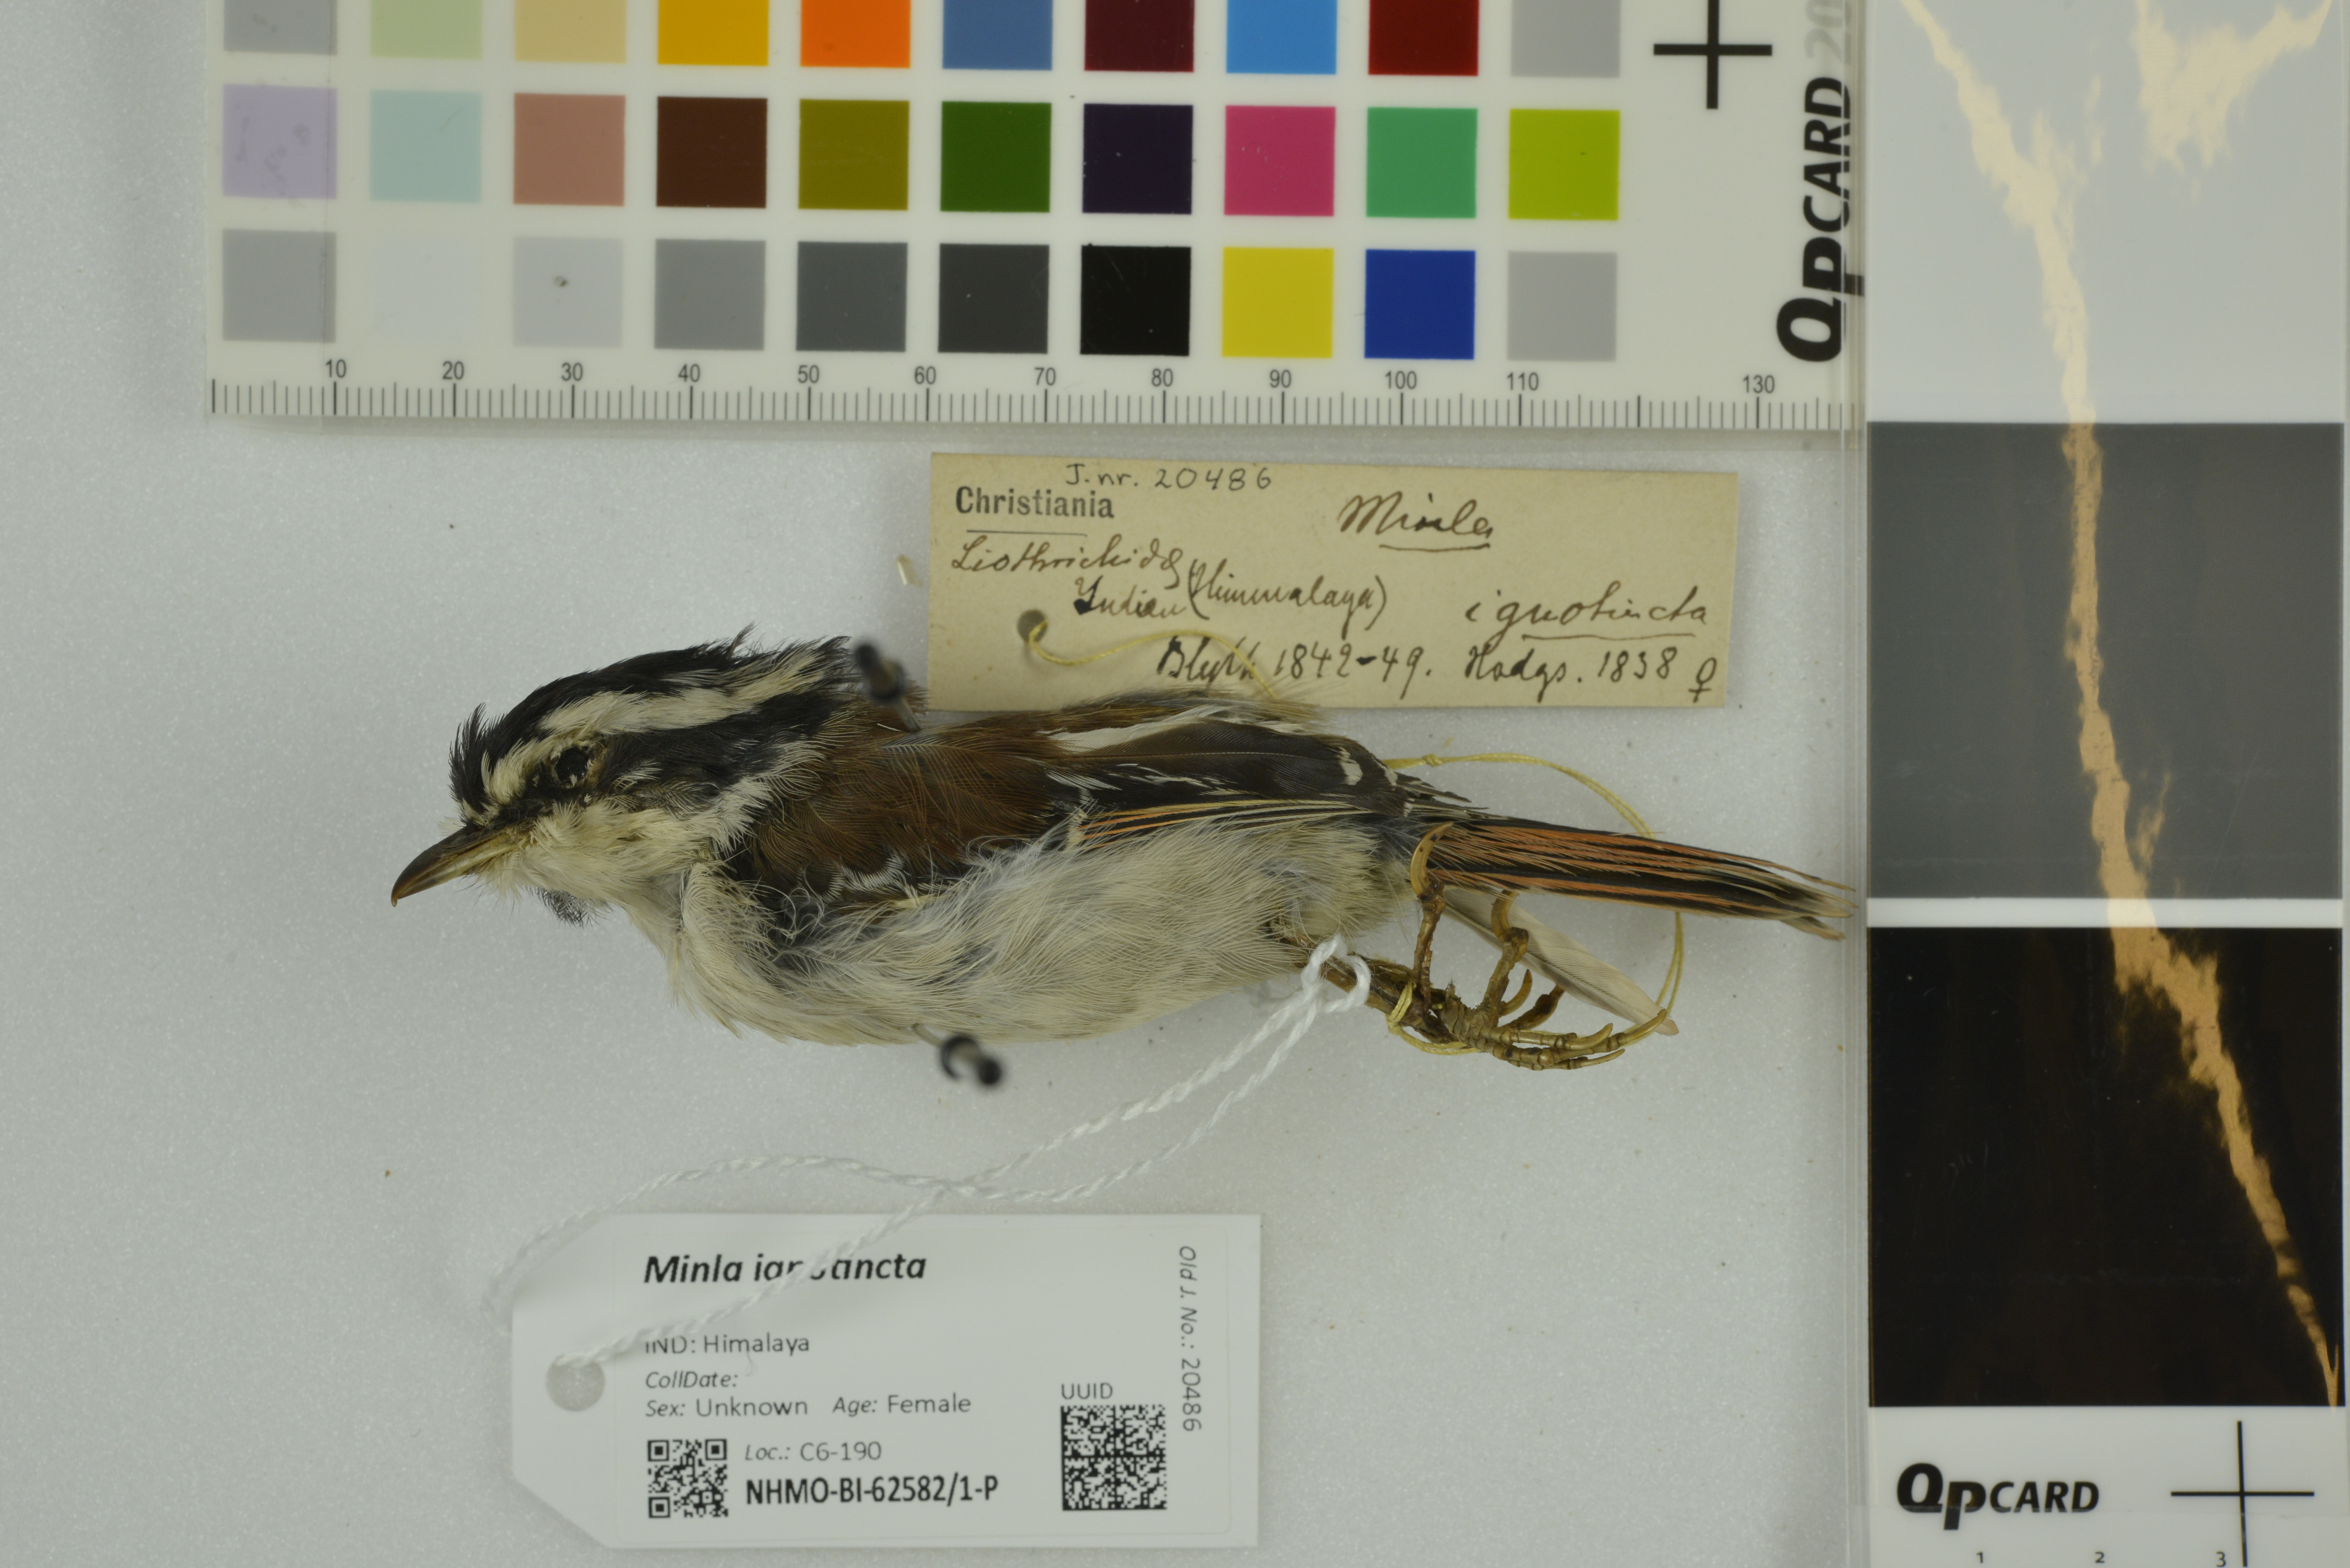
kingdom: Animalia
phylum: Chordata
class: Aves
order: Passeriformes
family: Leiothrichidae
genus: Minla
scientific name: Minla ignotincta
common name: Red-tailed minla
